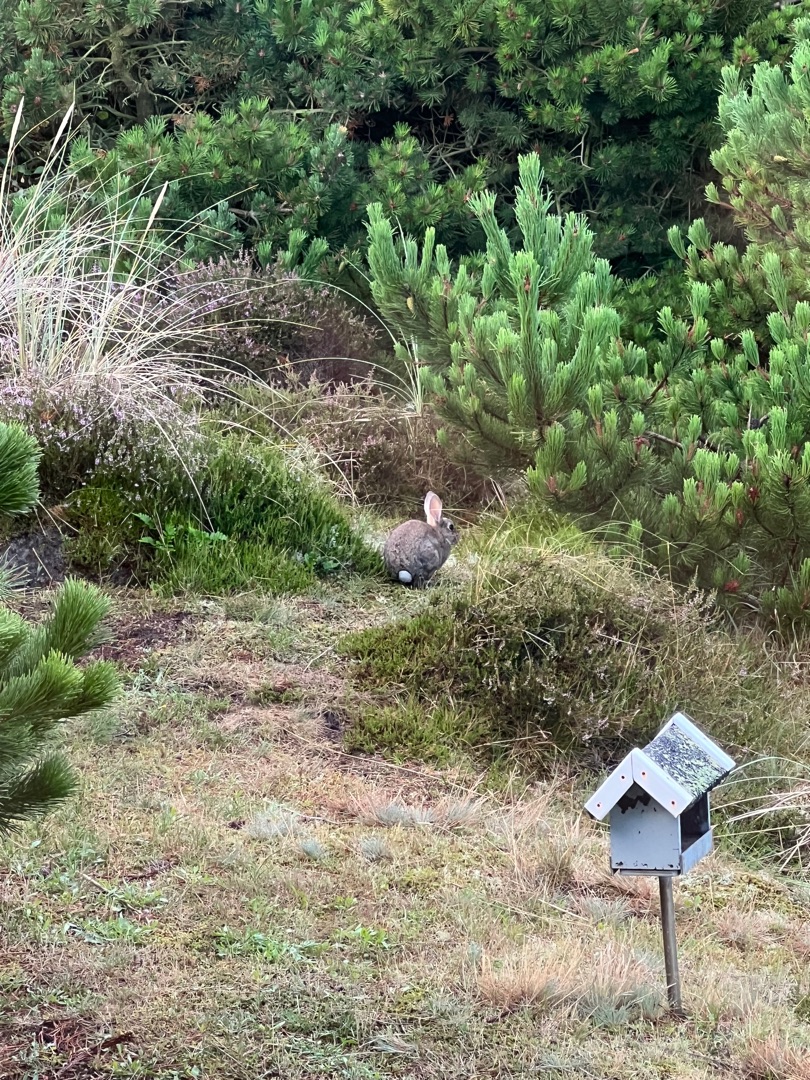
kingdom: Animalia
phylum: Chordata
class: Mammalia
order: Lagomorpha
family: Leporidae
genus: Oryctolagus
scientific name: Oryctolagus cuniculus
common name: Vildkanin
